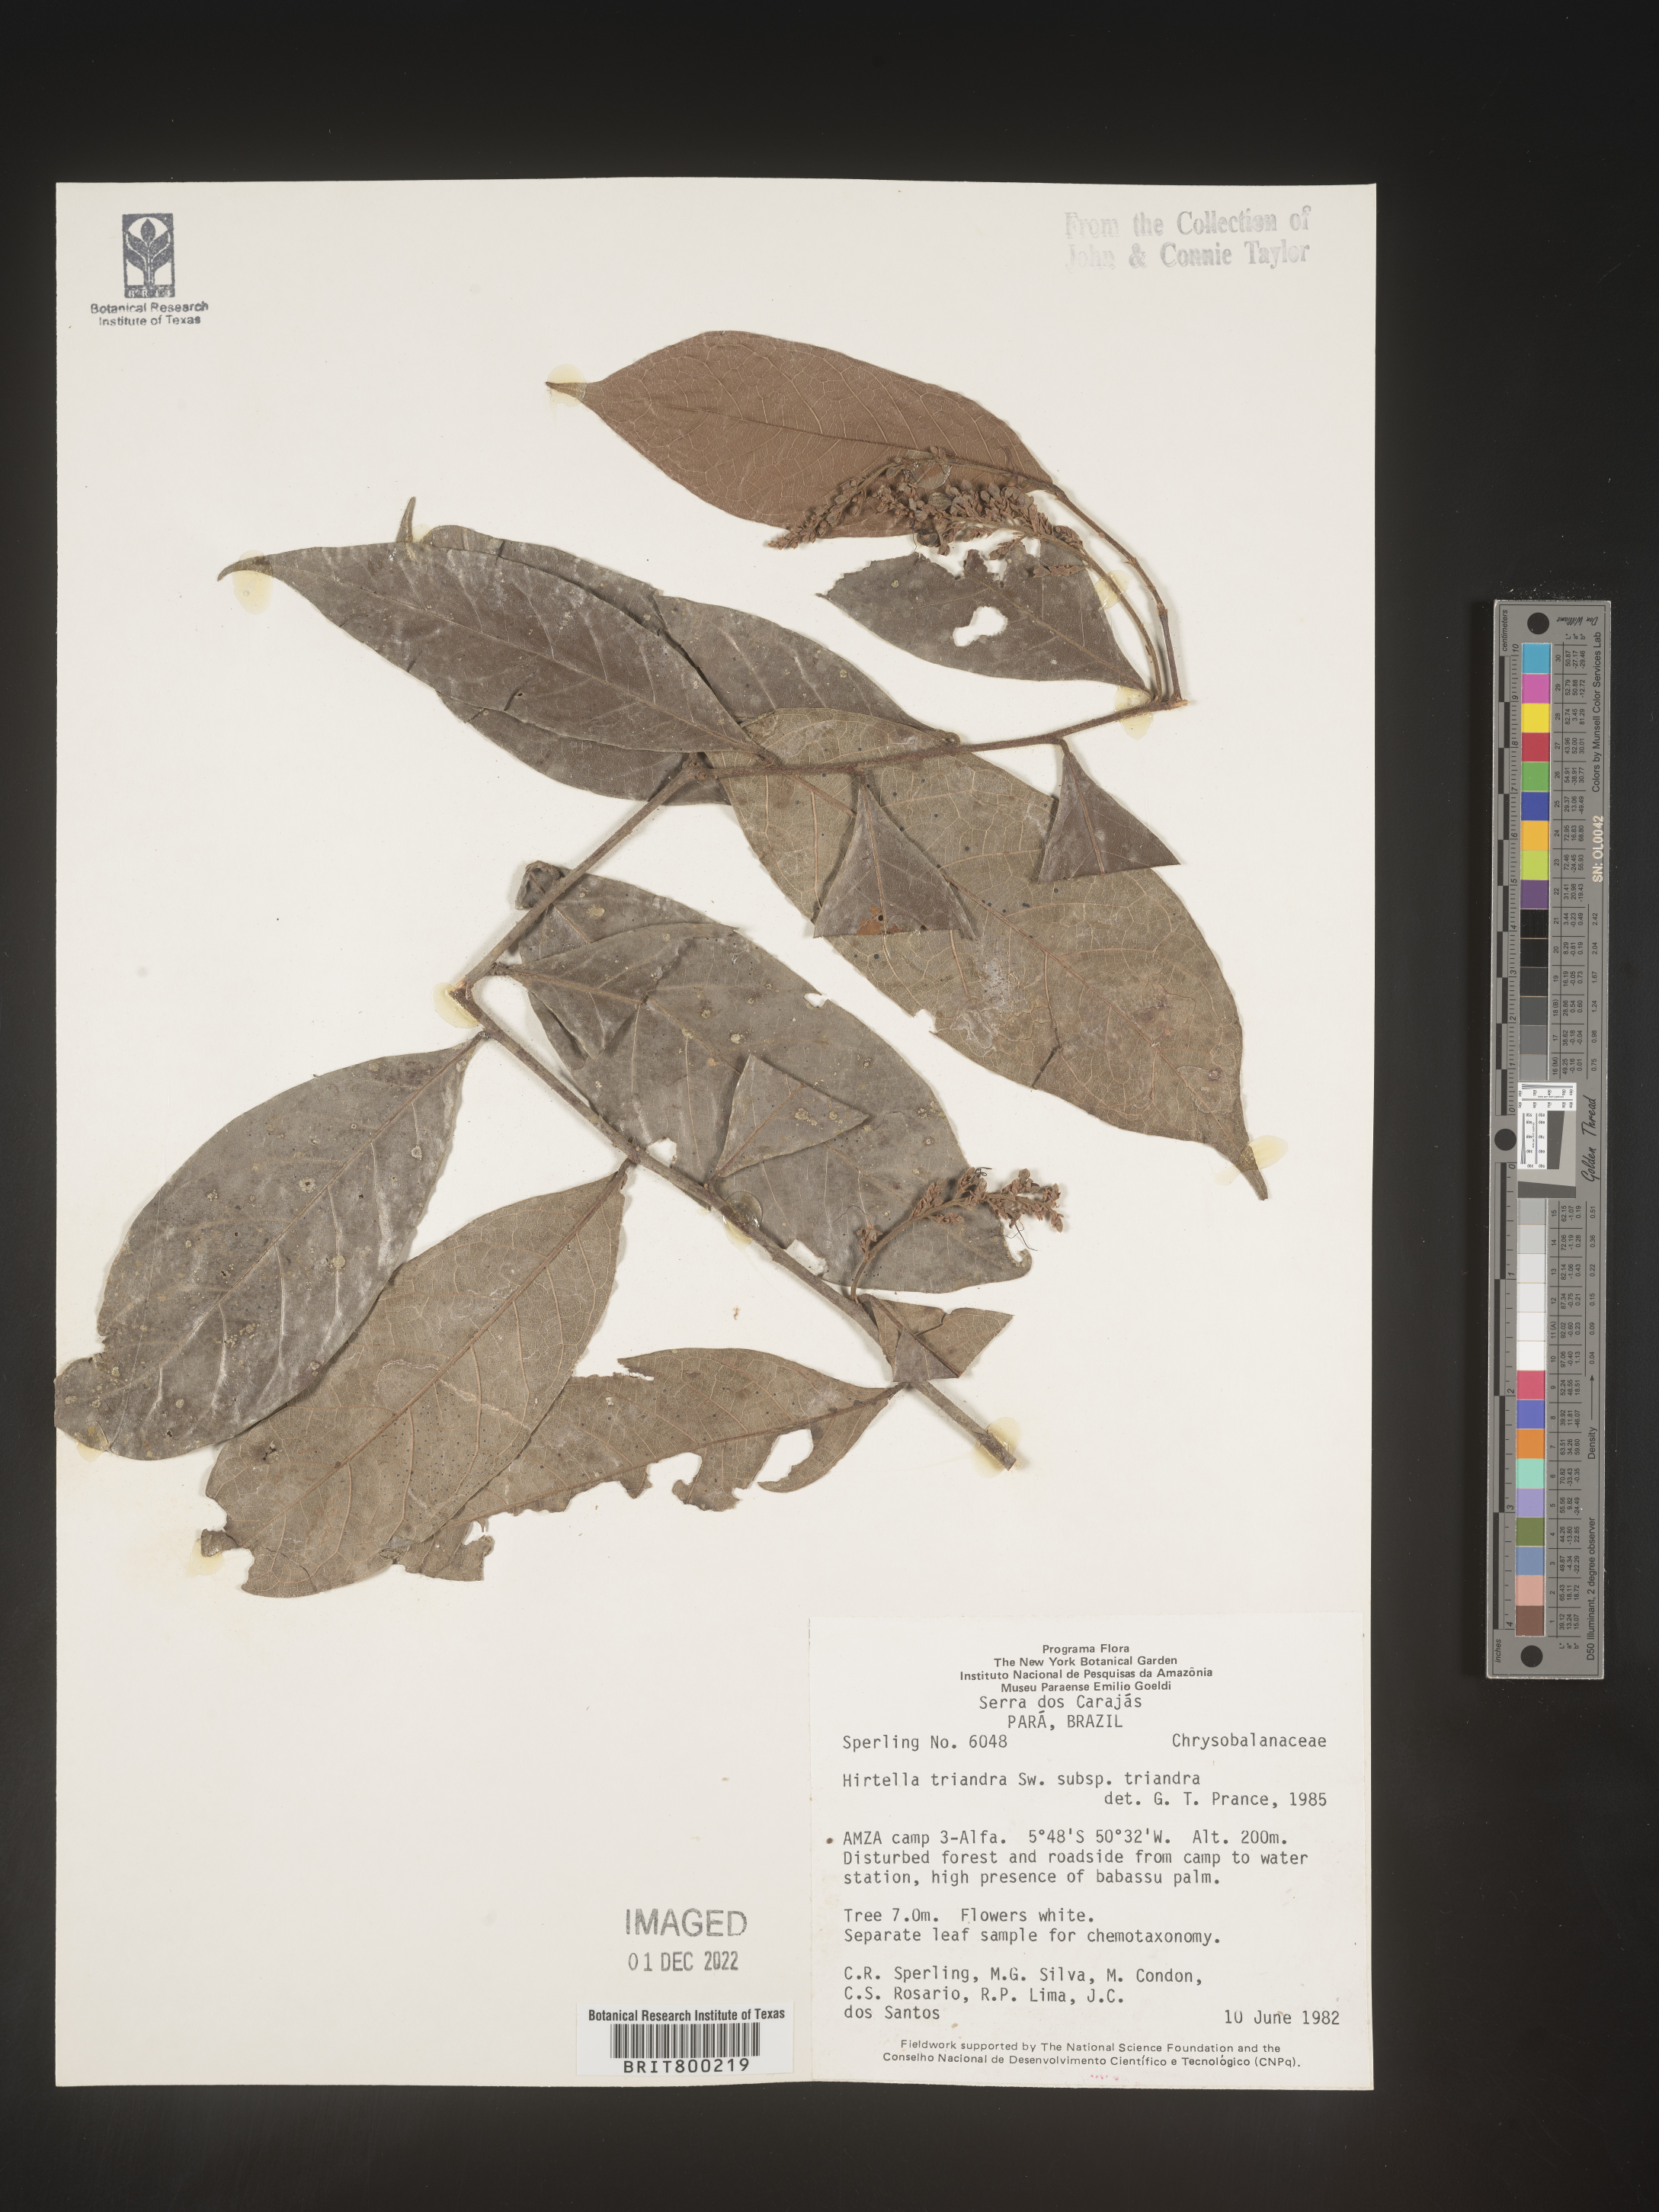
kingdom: Plantae
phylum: Tracheophyta
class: Magnoliopsida
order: Malpighiales
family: Chrysobalanaceae
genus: Hirtella
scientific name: Hirtella
